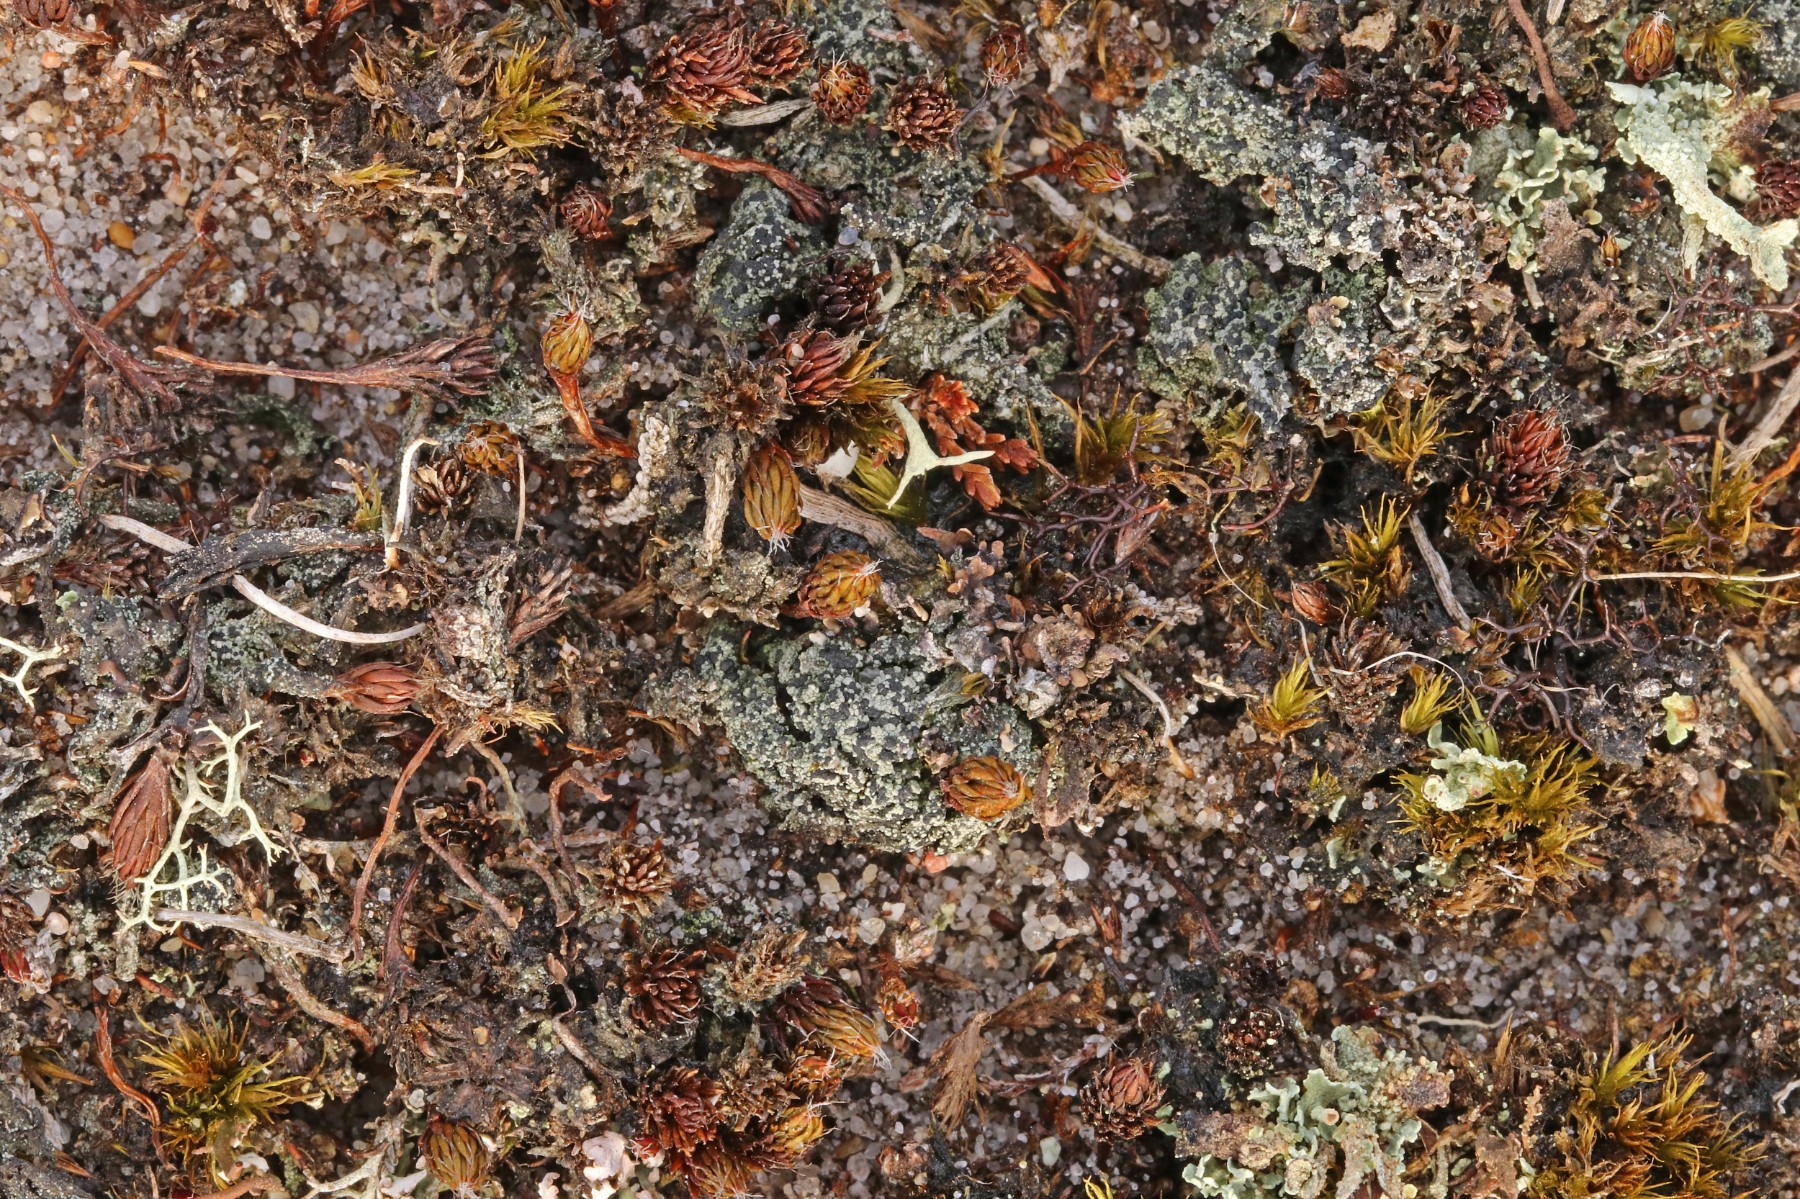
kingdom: Fungi
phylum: Ascomycota
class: Lecanoromycetes
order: Lecanorales
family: Byssolomataceae
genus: Micarea
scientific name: Micarea lignaria
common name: tørve-knaplav
